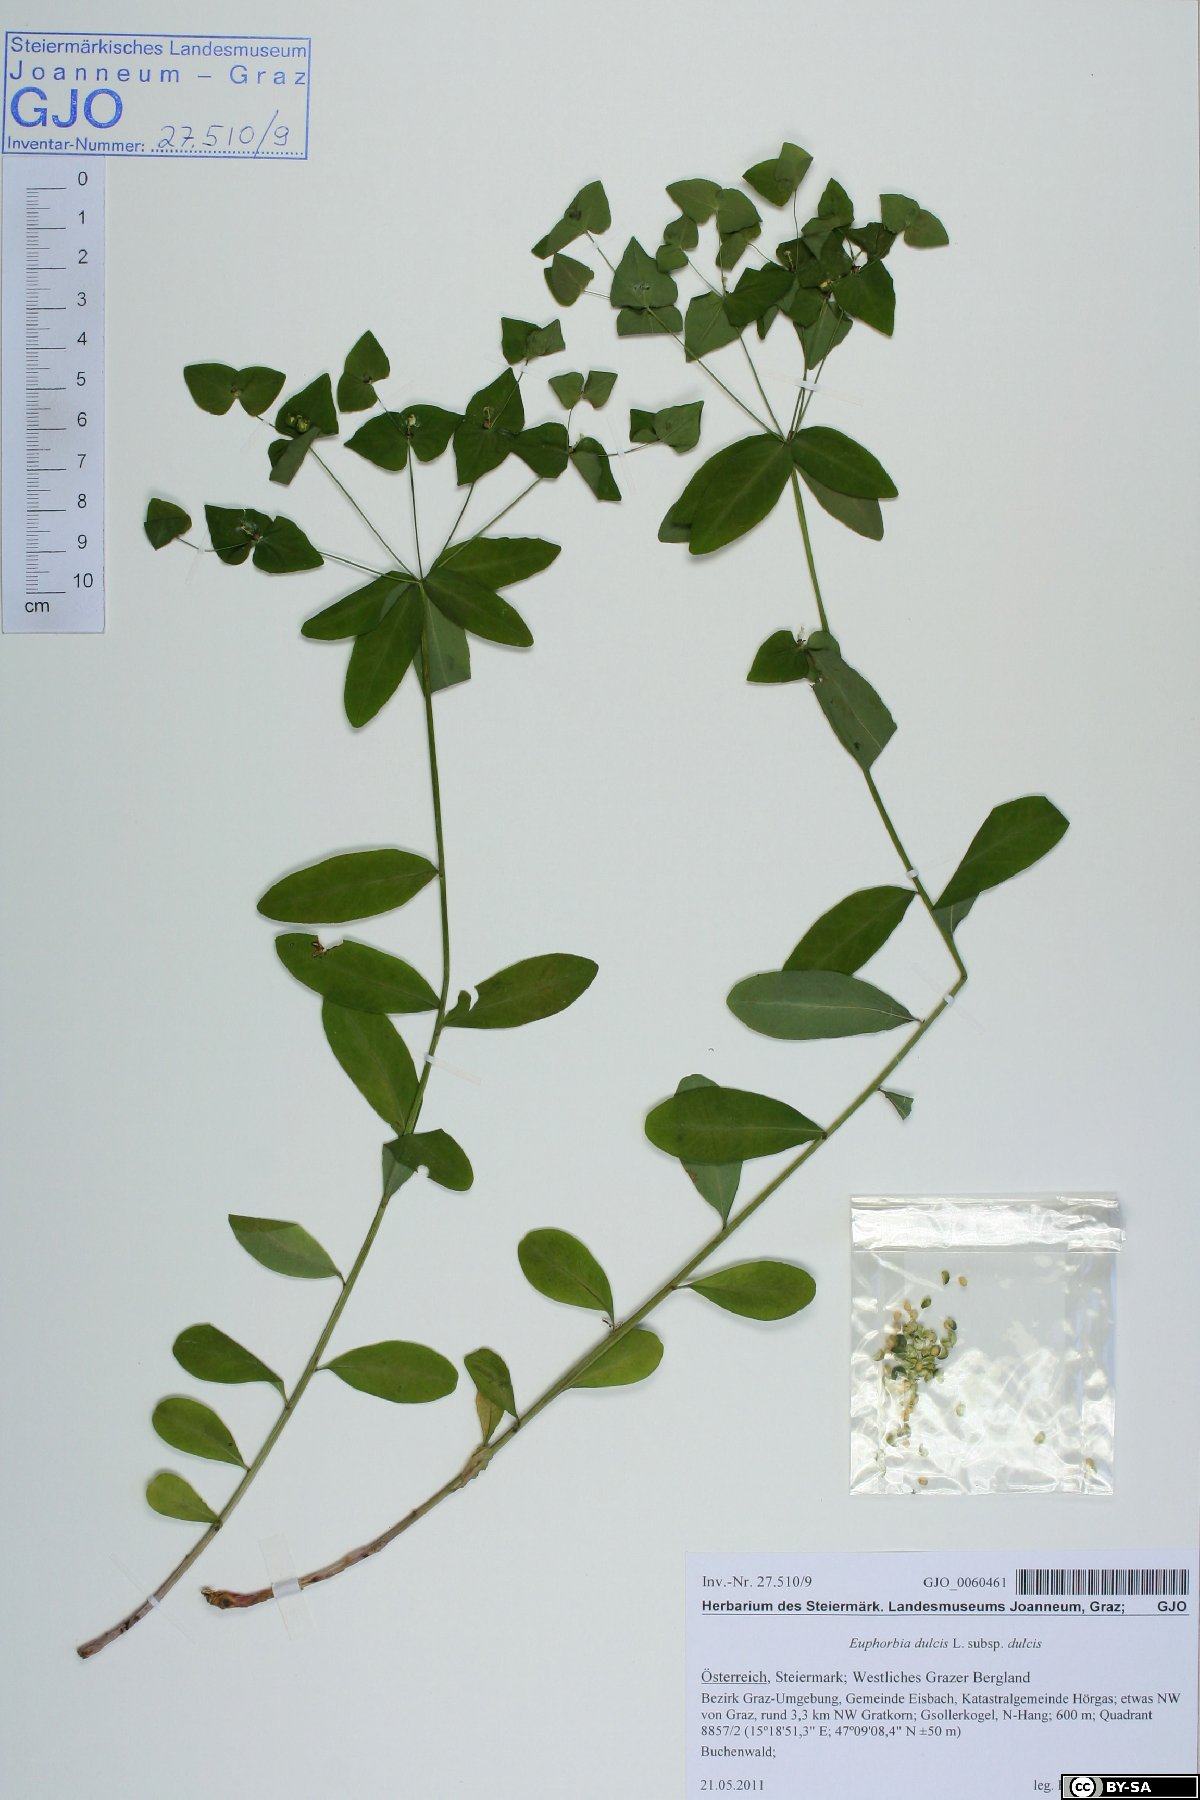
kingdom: Plantae
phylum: Tracheophyta
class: Magnoliopsida
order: Malpighiales
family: Euphorbiaceae
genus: Euphorbia
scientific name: Euphorbia dulcis
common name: Sweet spurge
